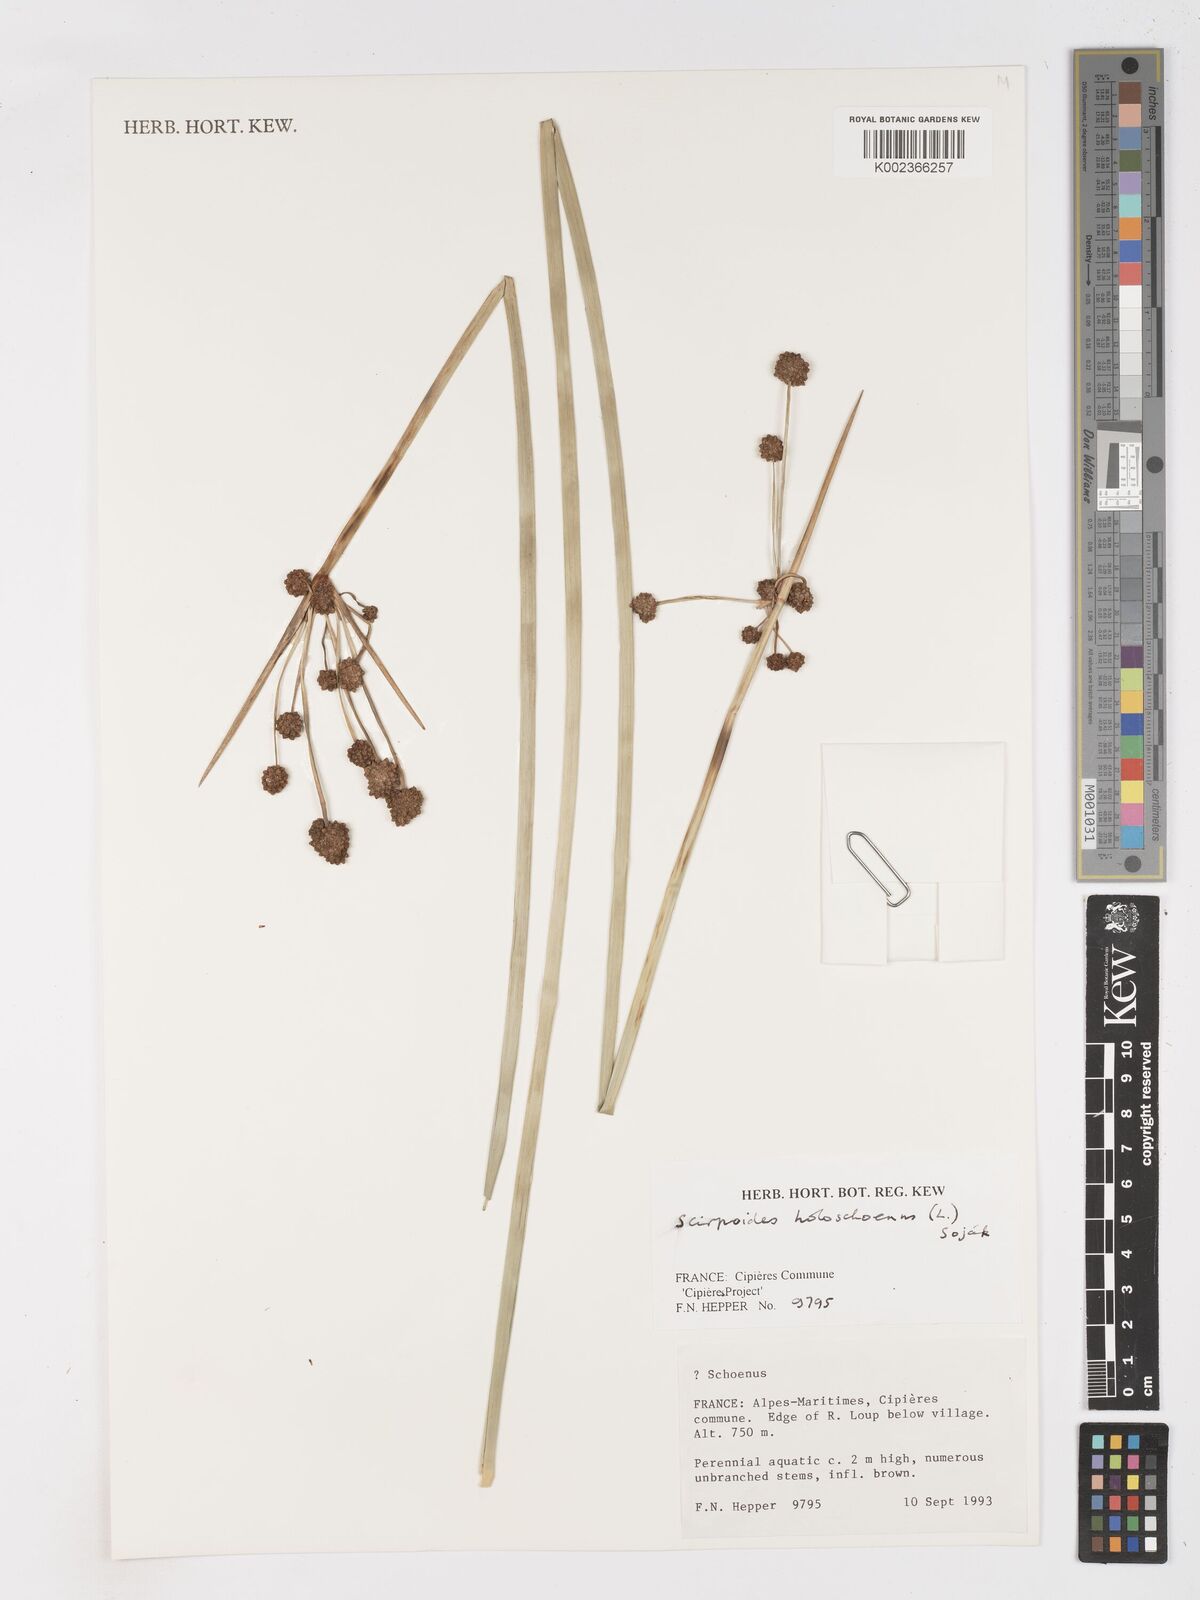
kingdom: Plantae
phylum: Tracheophyta
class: Liliopsida
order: Poales
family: Cyperaceae
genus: Scirpoides
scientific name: Scirpoides holoschoenus
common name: Round-headed club-rush
